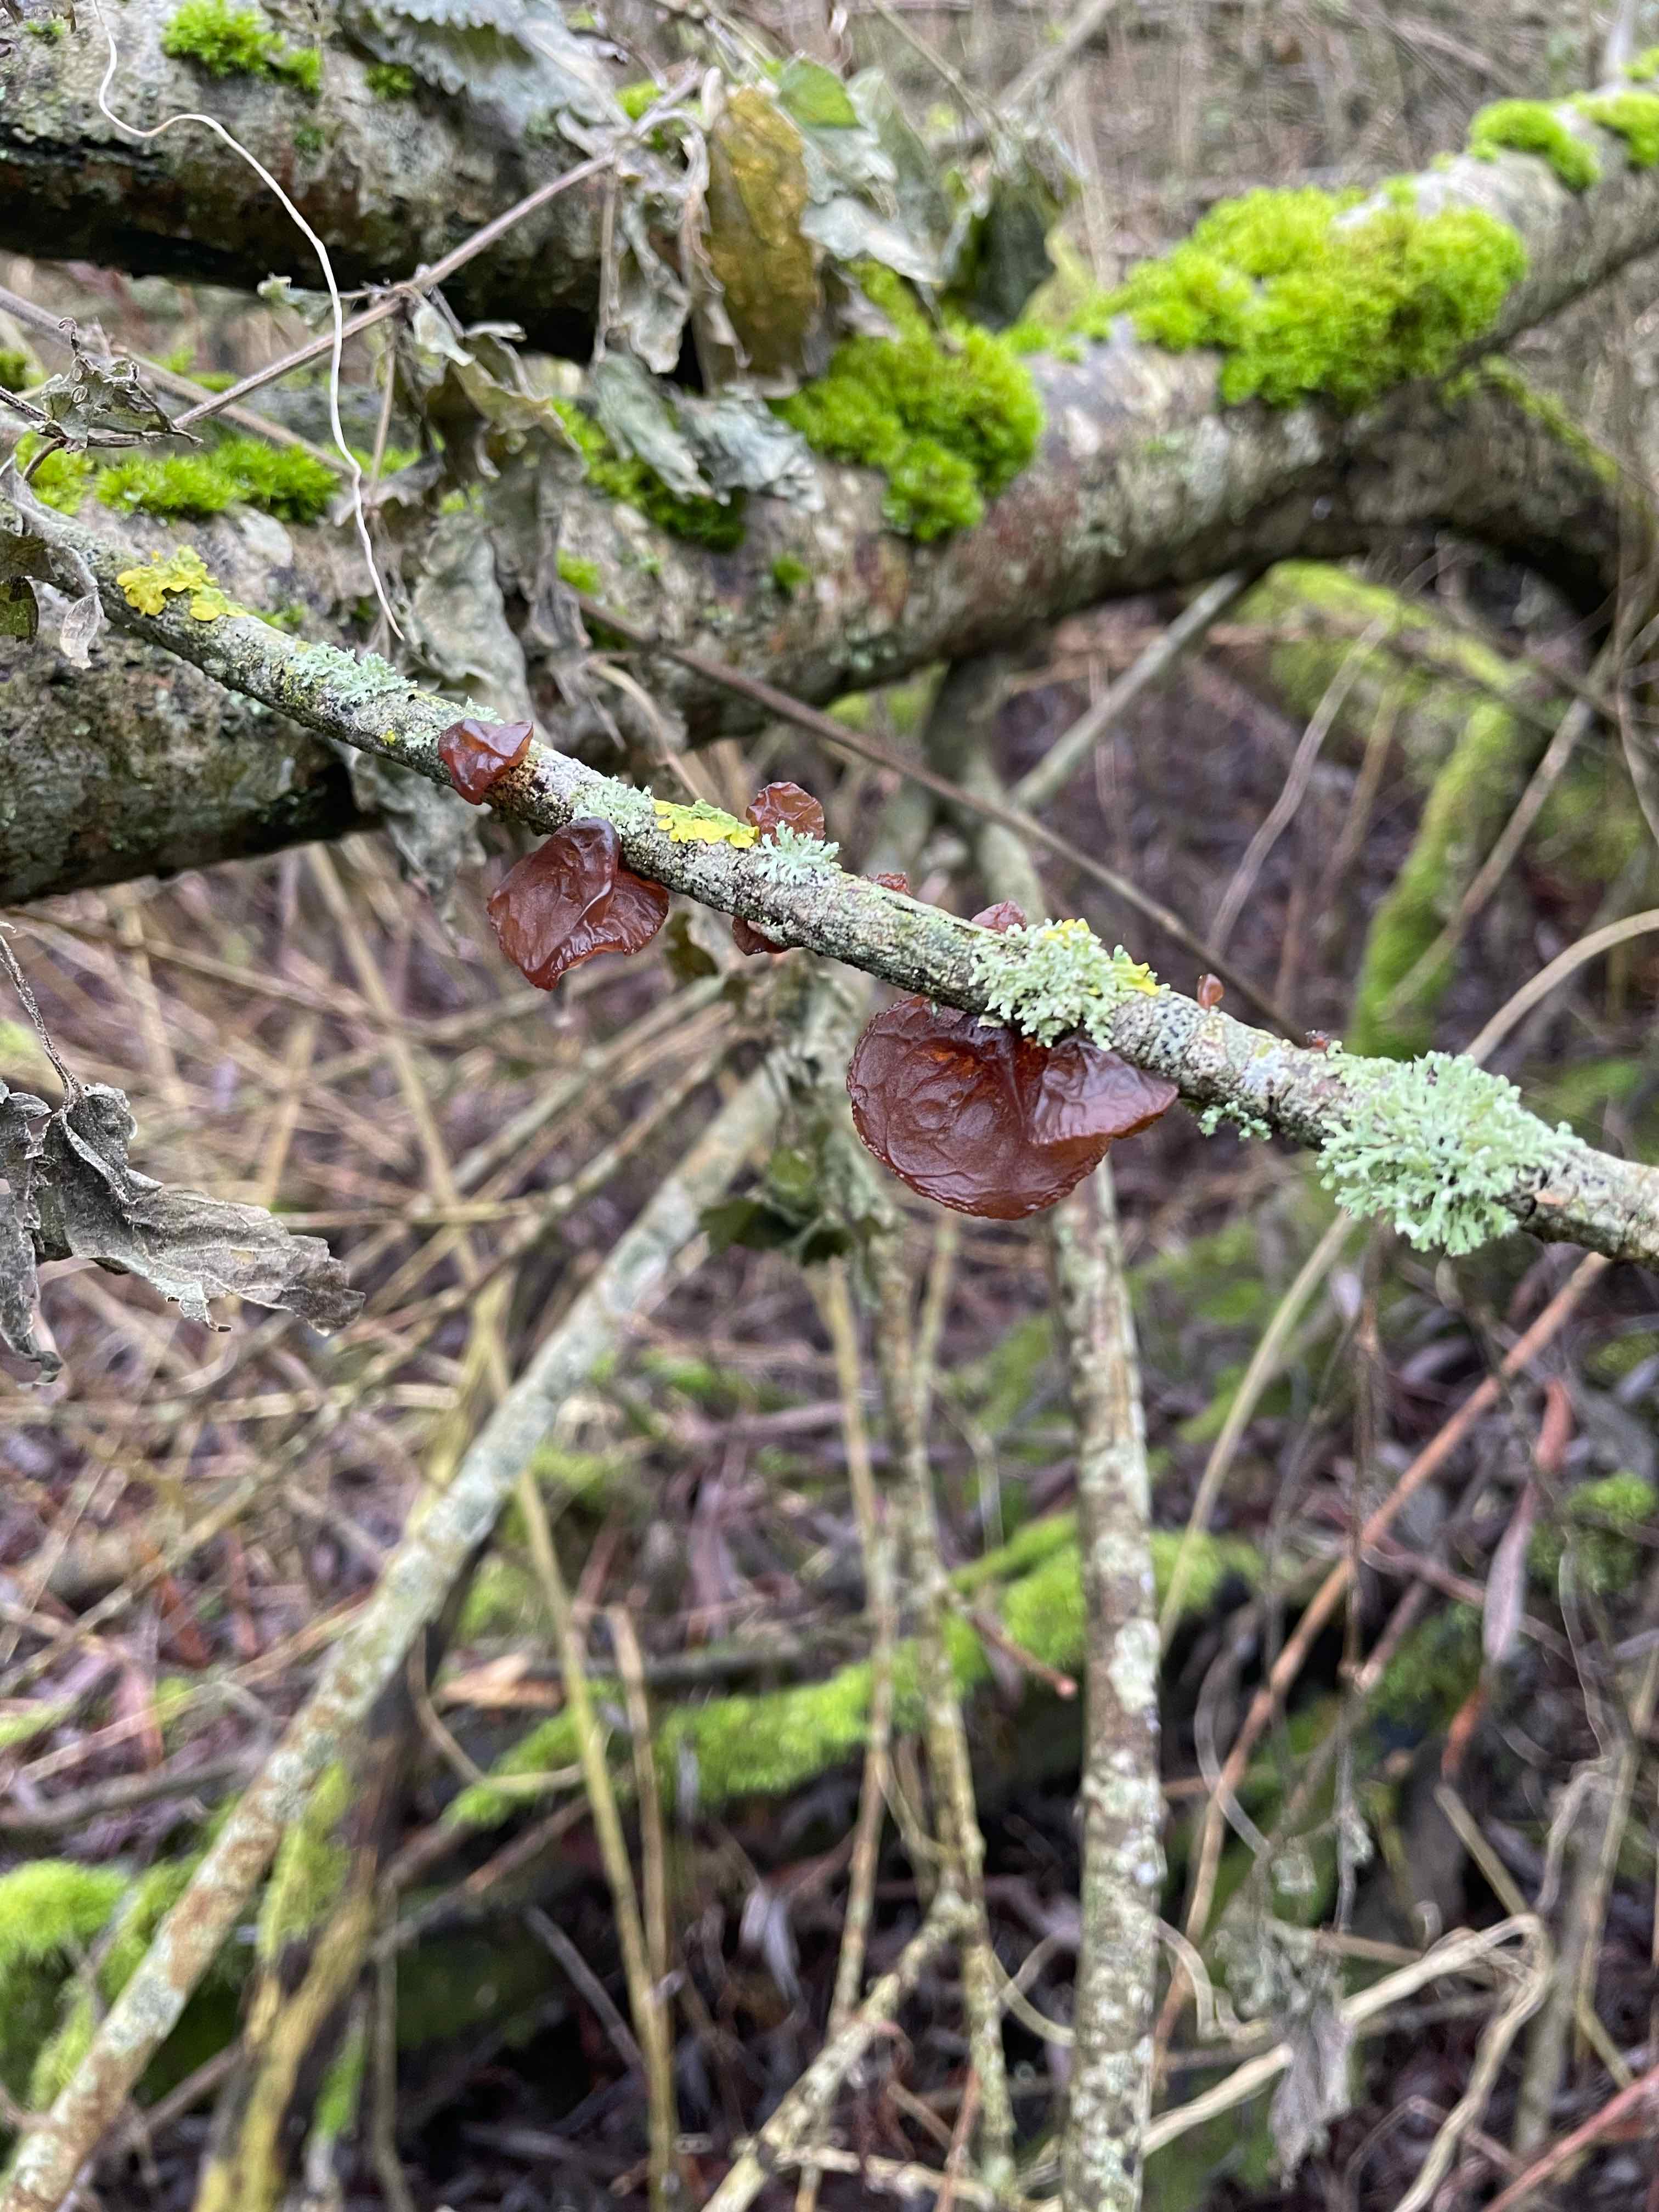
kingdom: Fungi
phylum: Basidiomycota
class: Agaricomycetes
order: Auriculariales
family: Auriculariaceae
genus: Exidia
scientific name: Exidia recisa
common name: pile-bævretop
